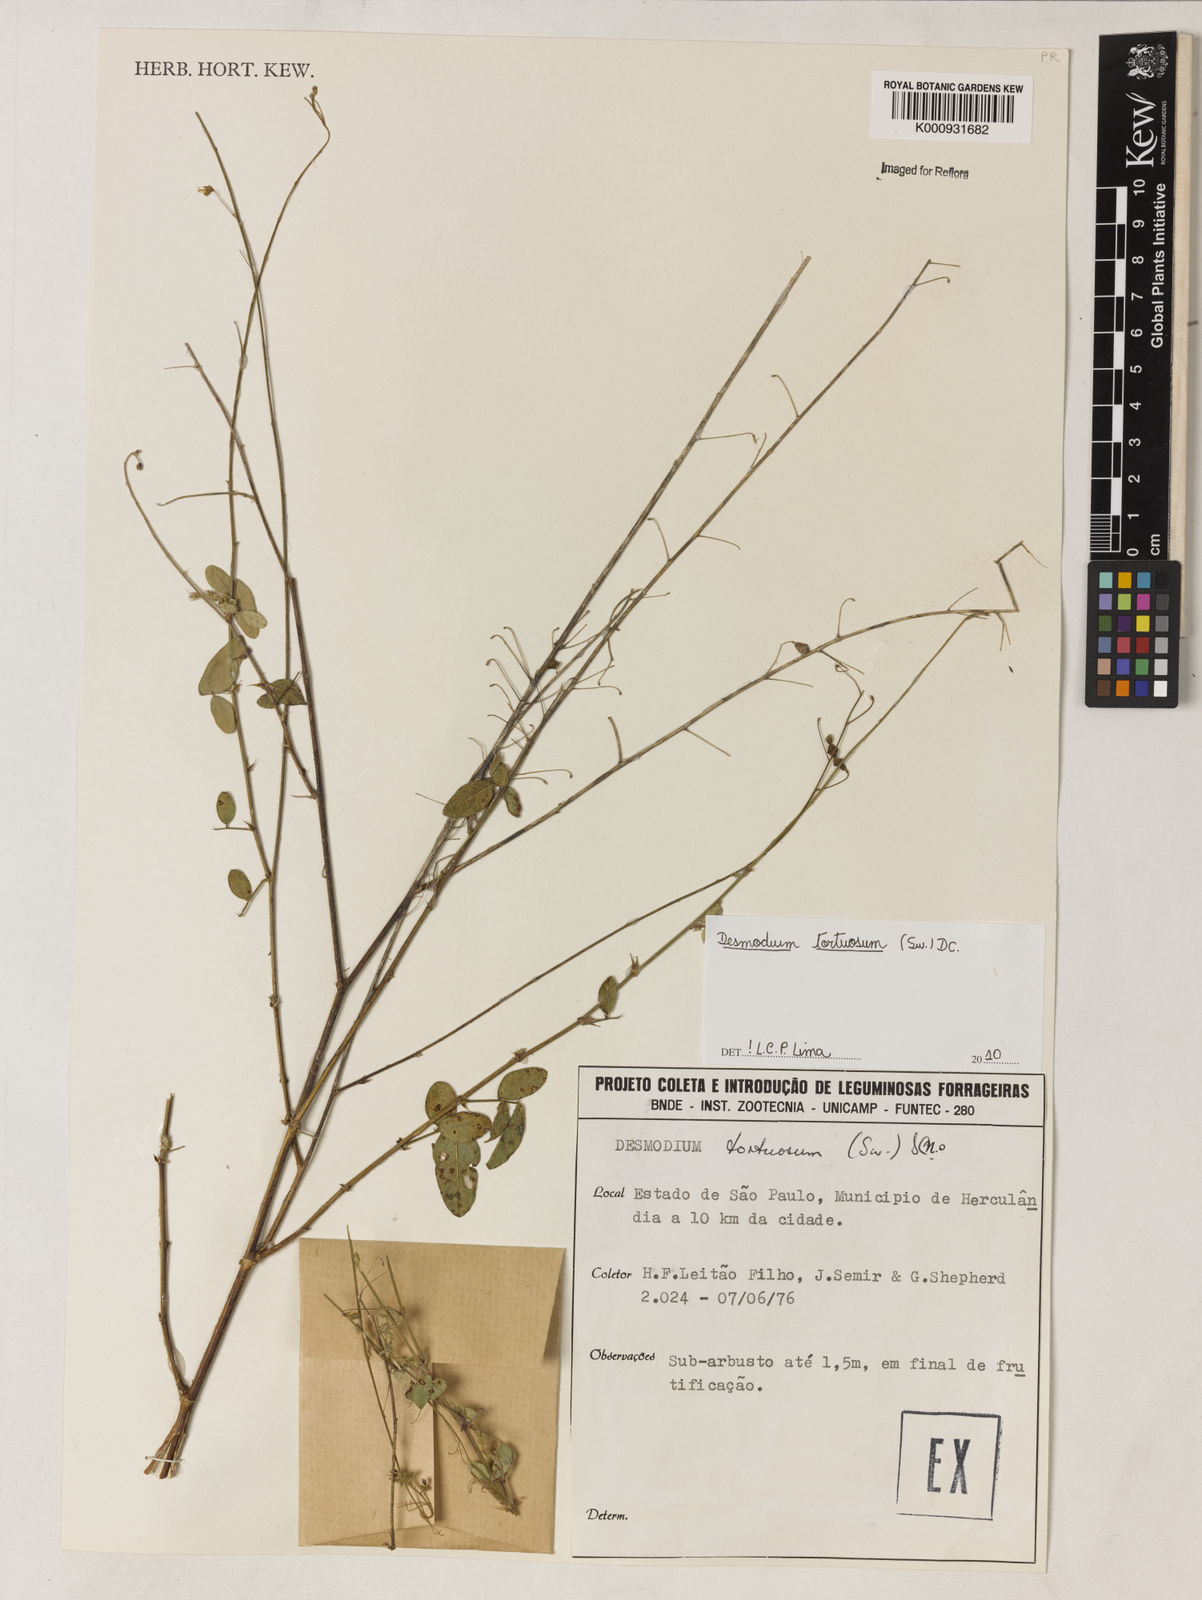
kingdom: Plantae
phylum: Tracheophyta
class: Magnoliopsida
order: Fabales
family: Fabaceae
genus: Desmodium
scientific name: Desmodium tortuosum
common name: Dixie ticktrefoil
